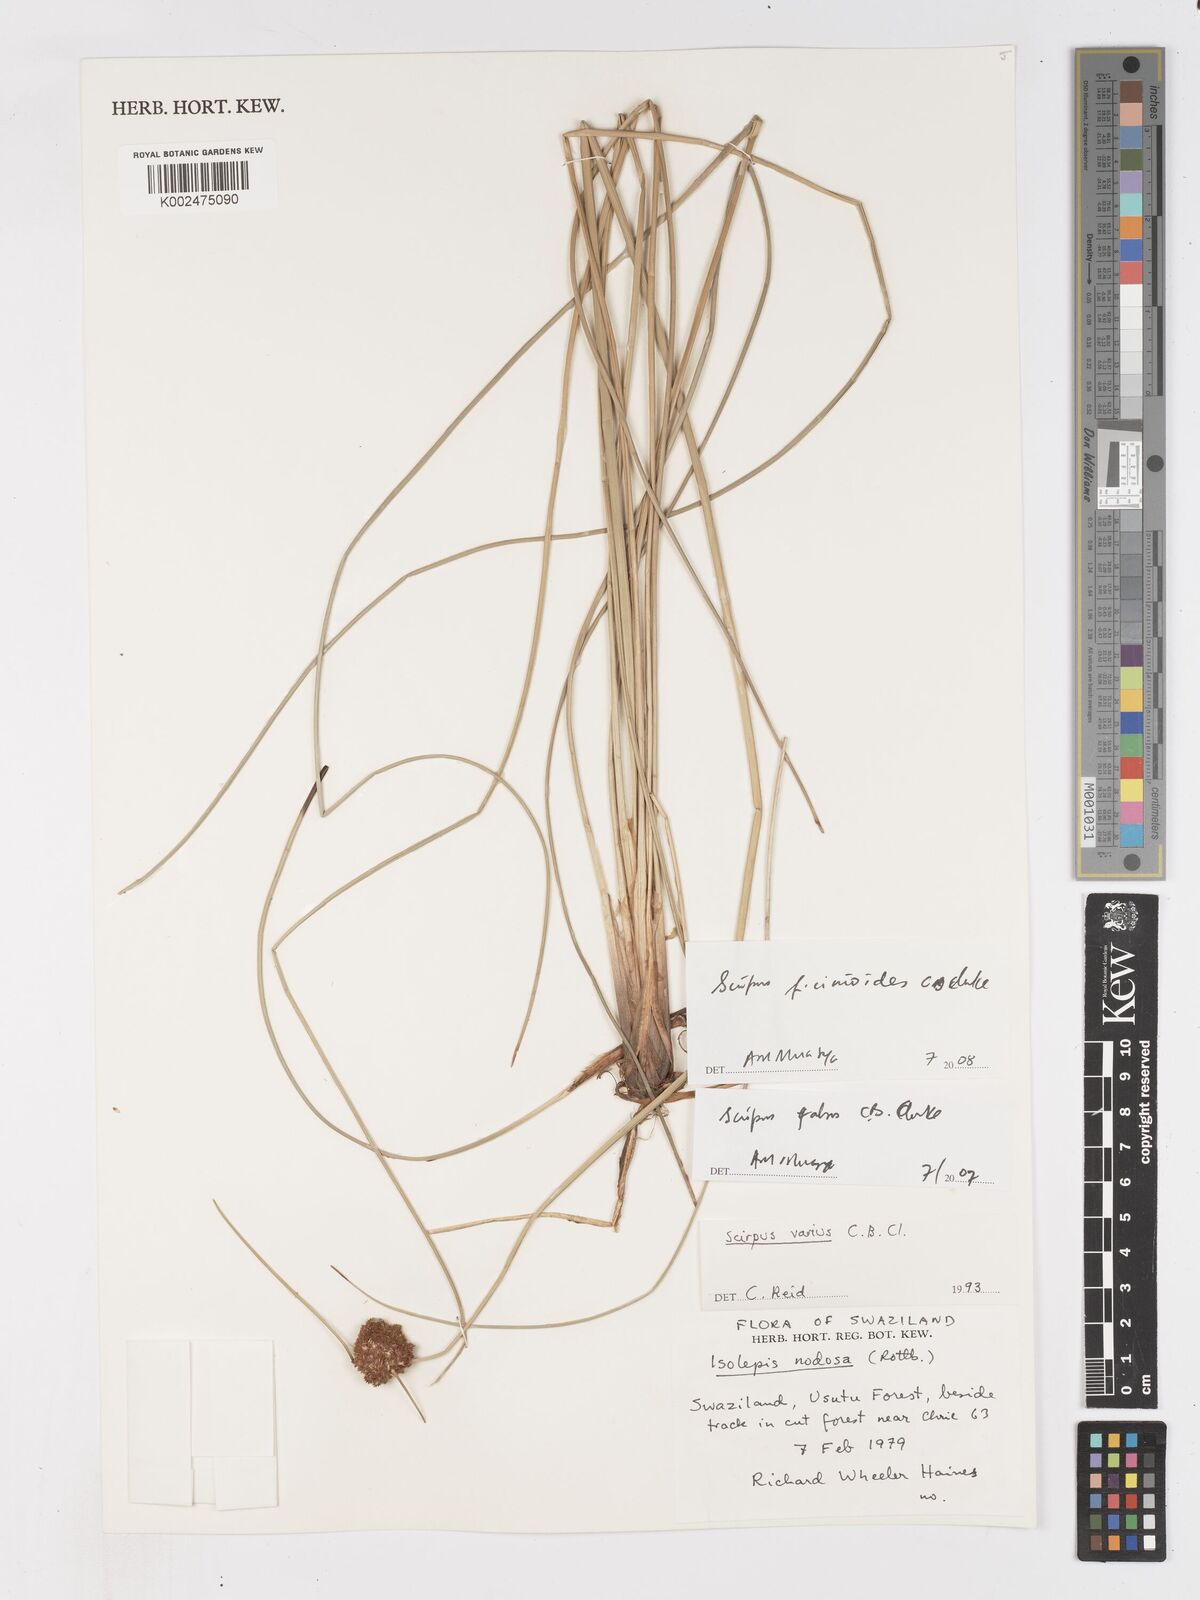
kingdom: Plantae
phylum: Tracheophyta
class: Liliopsida
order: Poales
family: Cyperaceae
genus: Ficinia
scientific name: Ficinia
